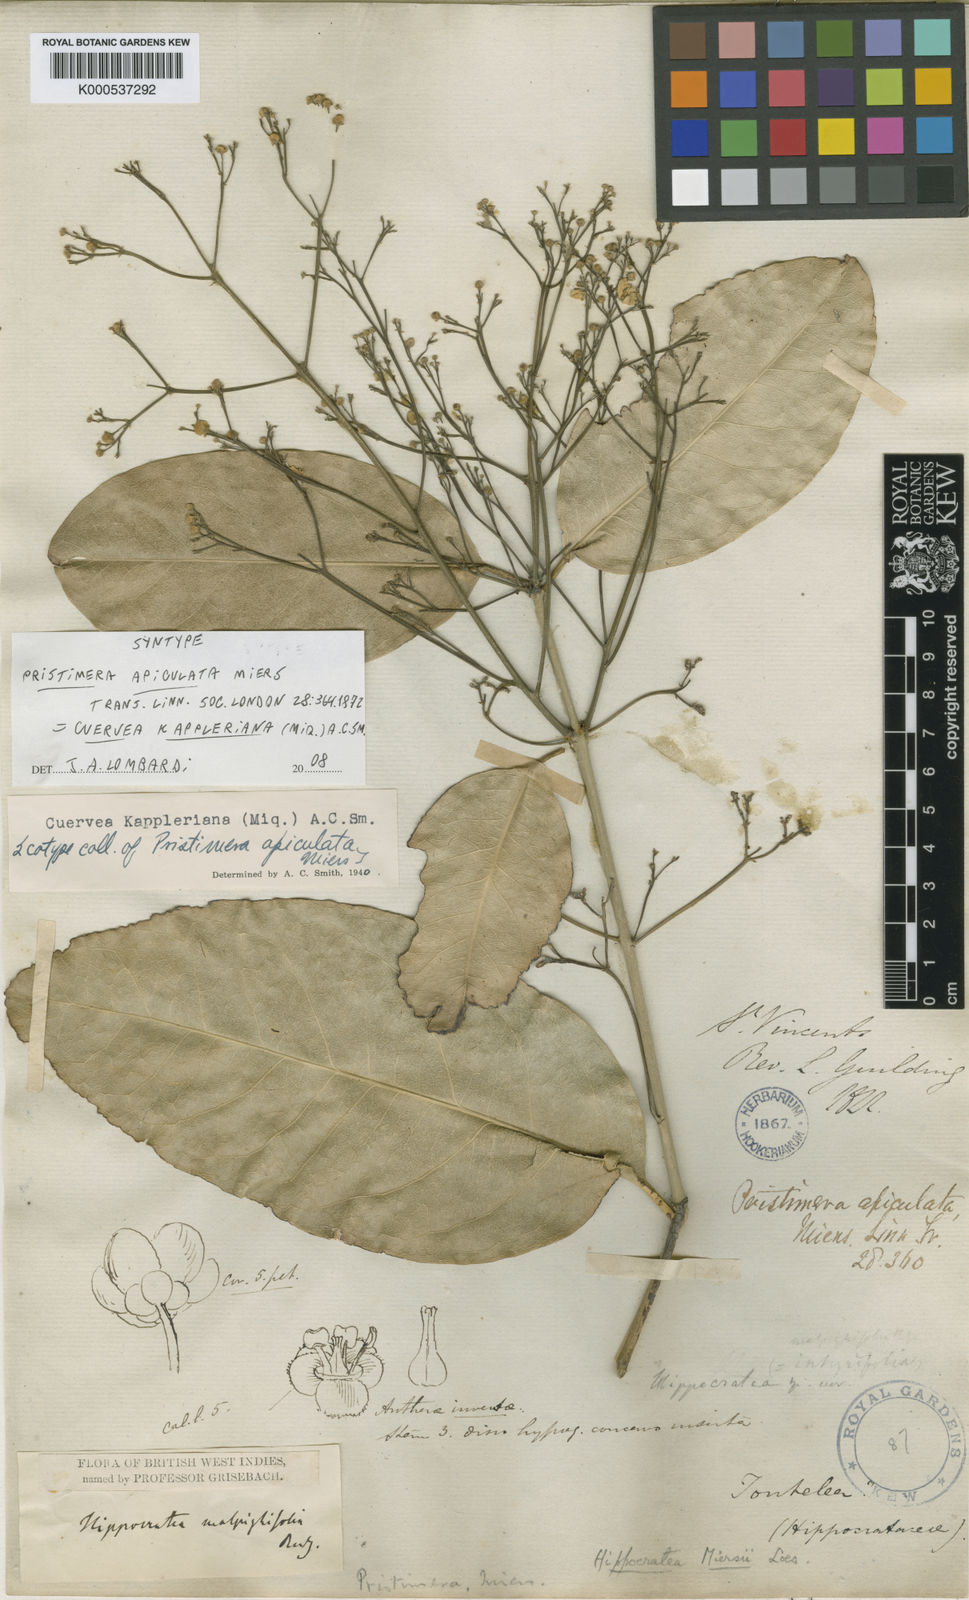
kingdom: Plantae
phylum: Tracheophyta
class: Magnoliopsida
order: Celastrales
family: Celastraceae
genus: Cuervea
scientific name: Cuervea kappleriana
